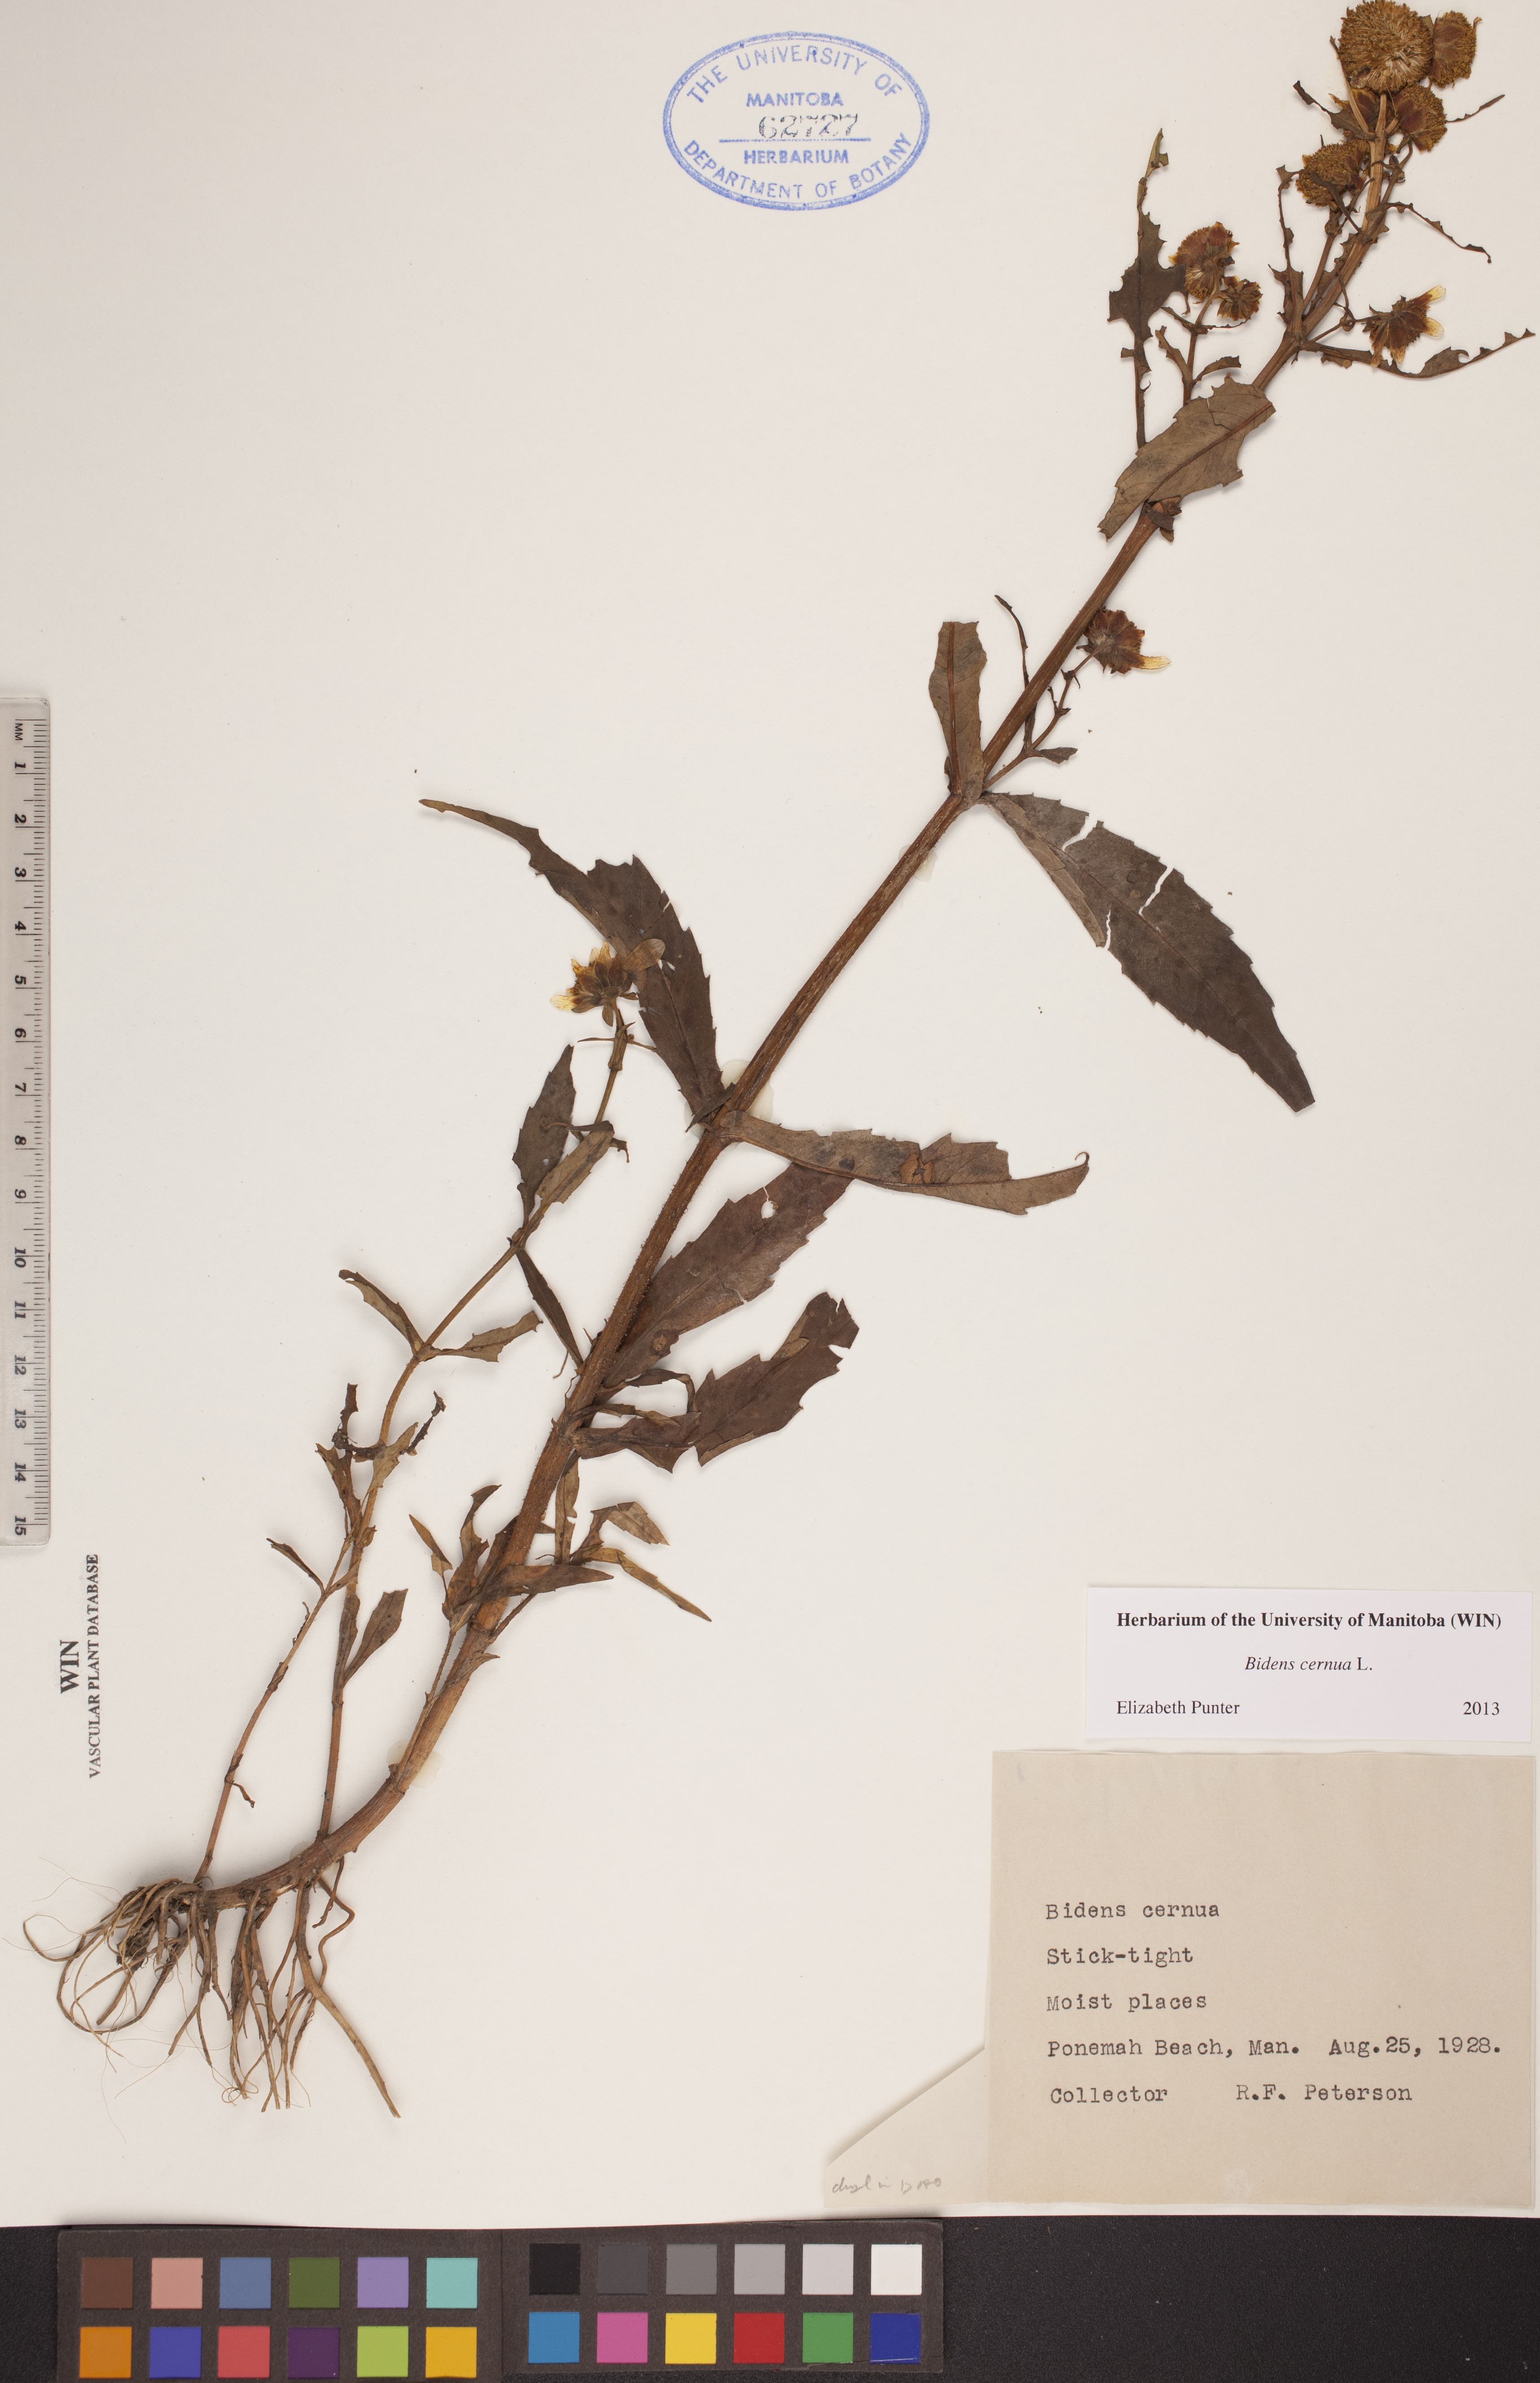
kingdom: Plantae
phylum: Tracheophyta
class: Magnoliopsida
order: Asterales
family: Asteraceae
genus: Bidens
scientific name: Bidens cernua
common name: Nodding bur-marigold
